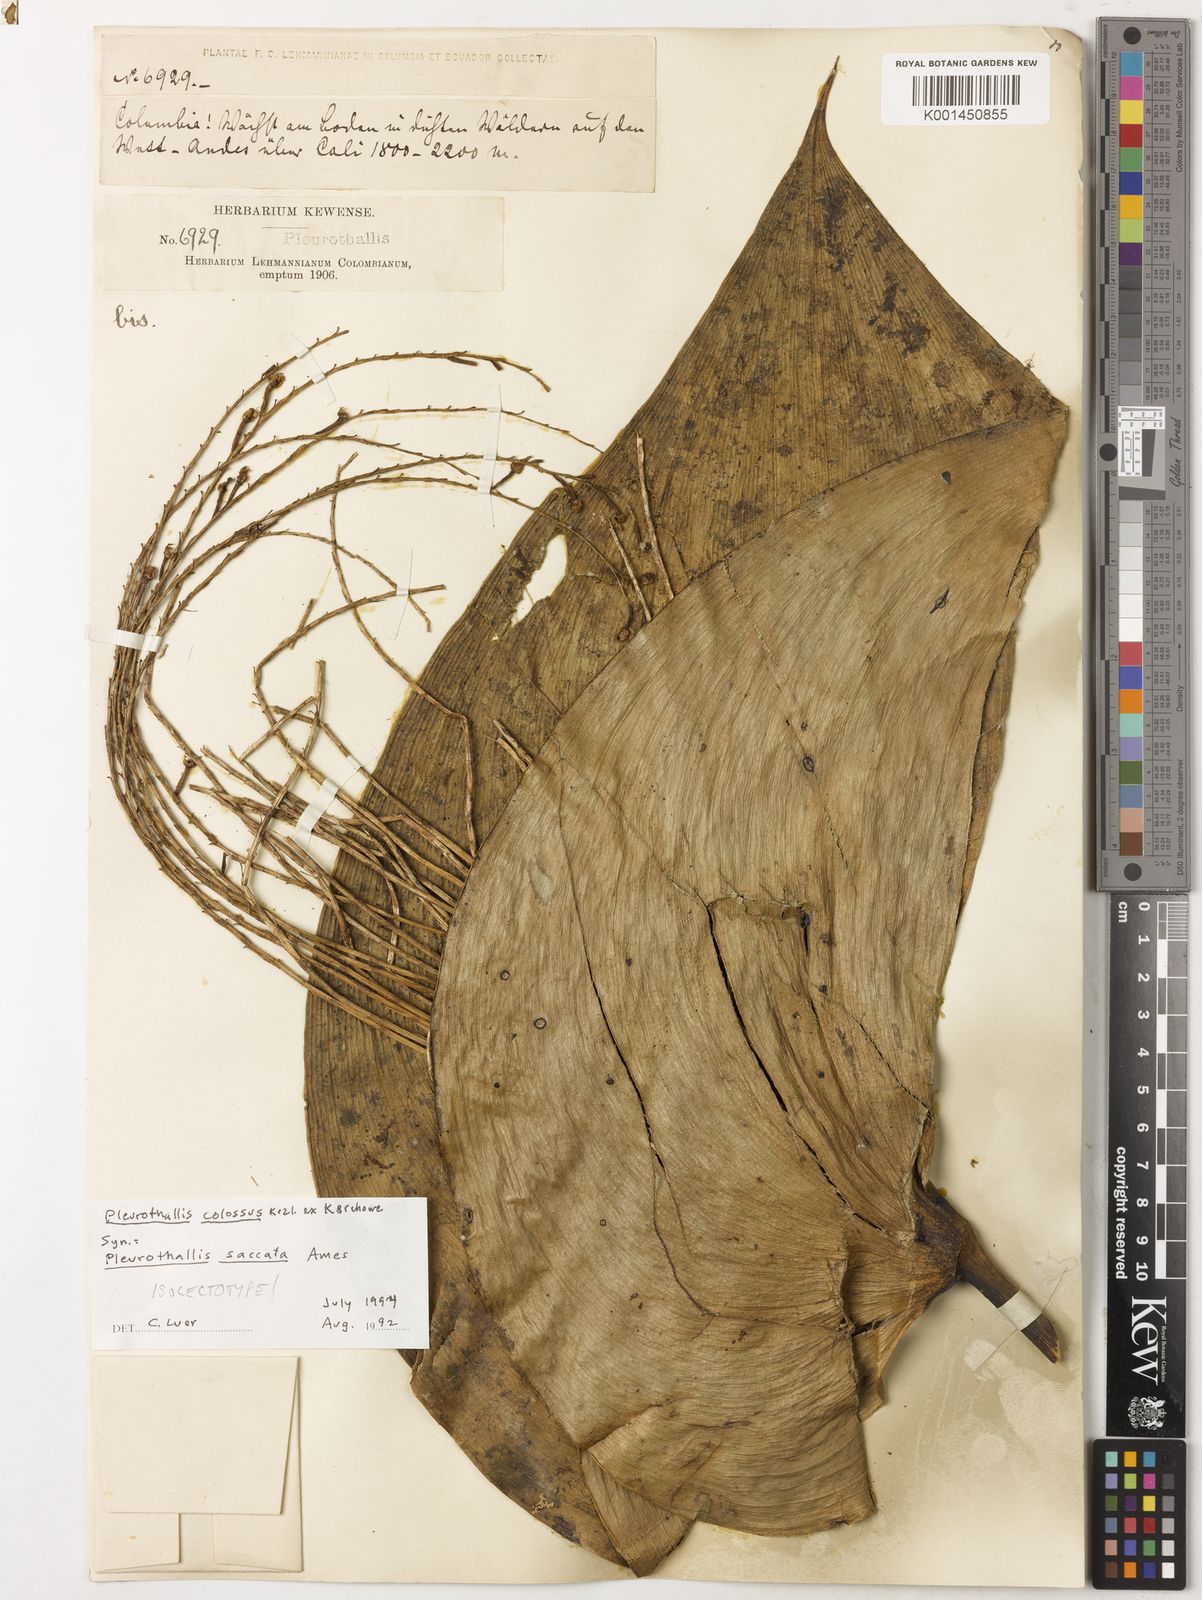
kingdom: Plantae
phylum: Tracheophyta
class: Liliopsida
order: Asparagales
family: Orchidaceae
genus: Pleurothallis
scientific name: Pleurothallis colossus
